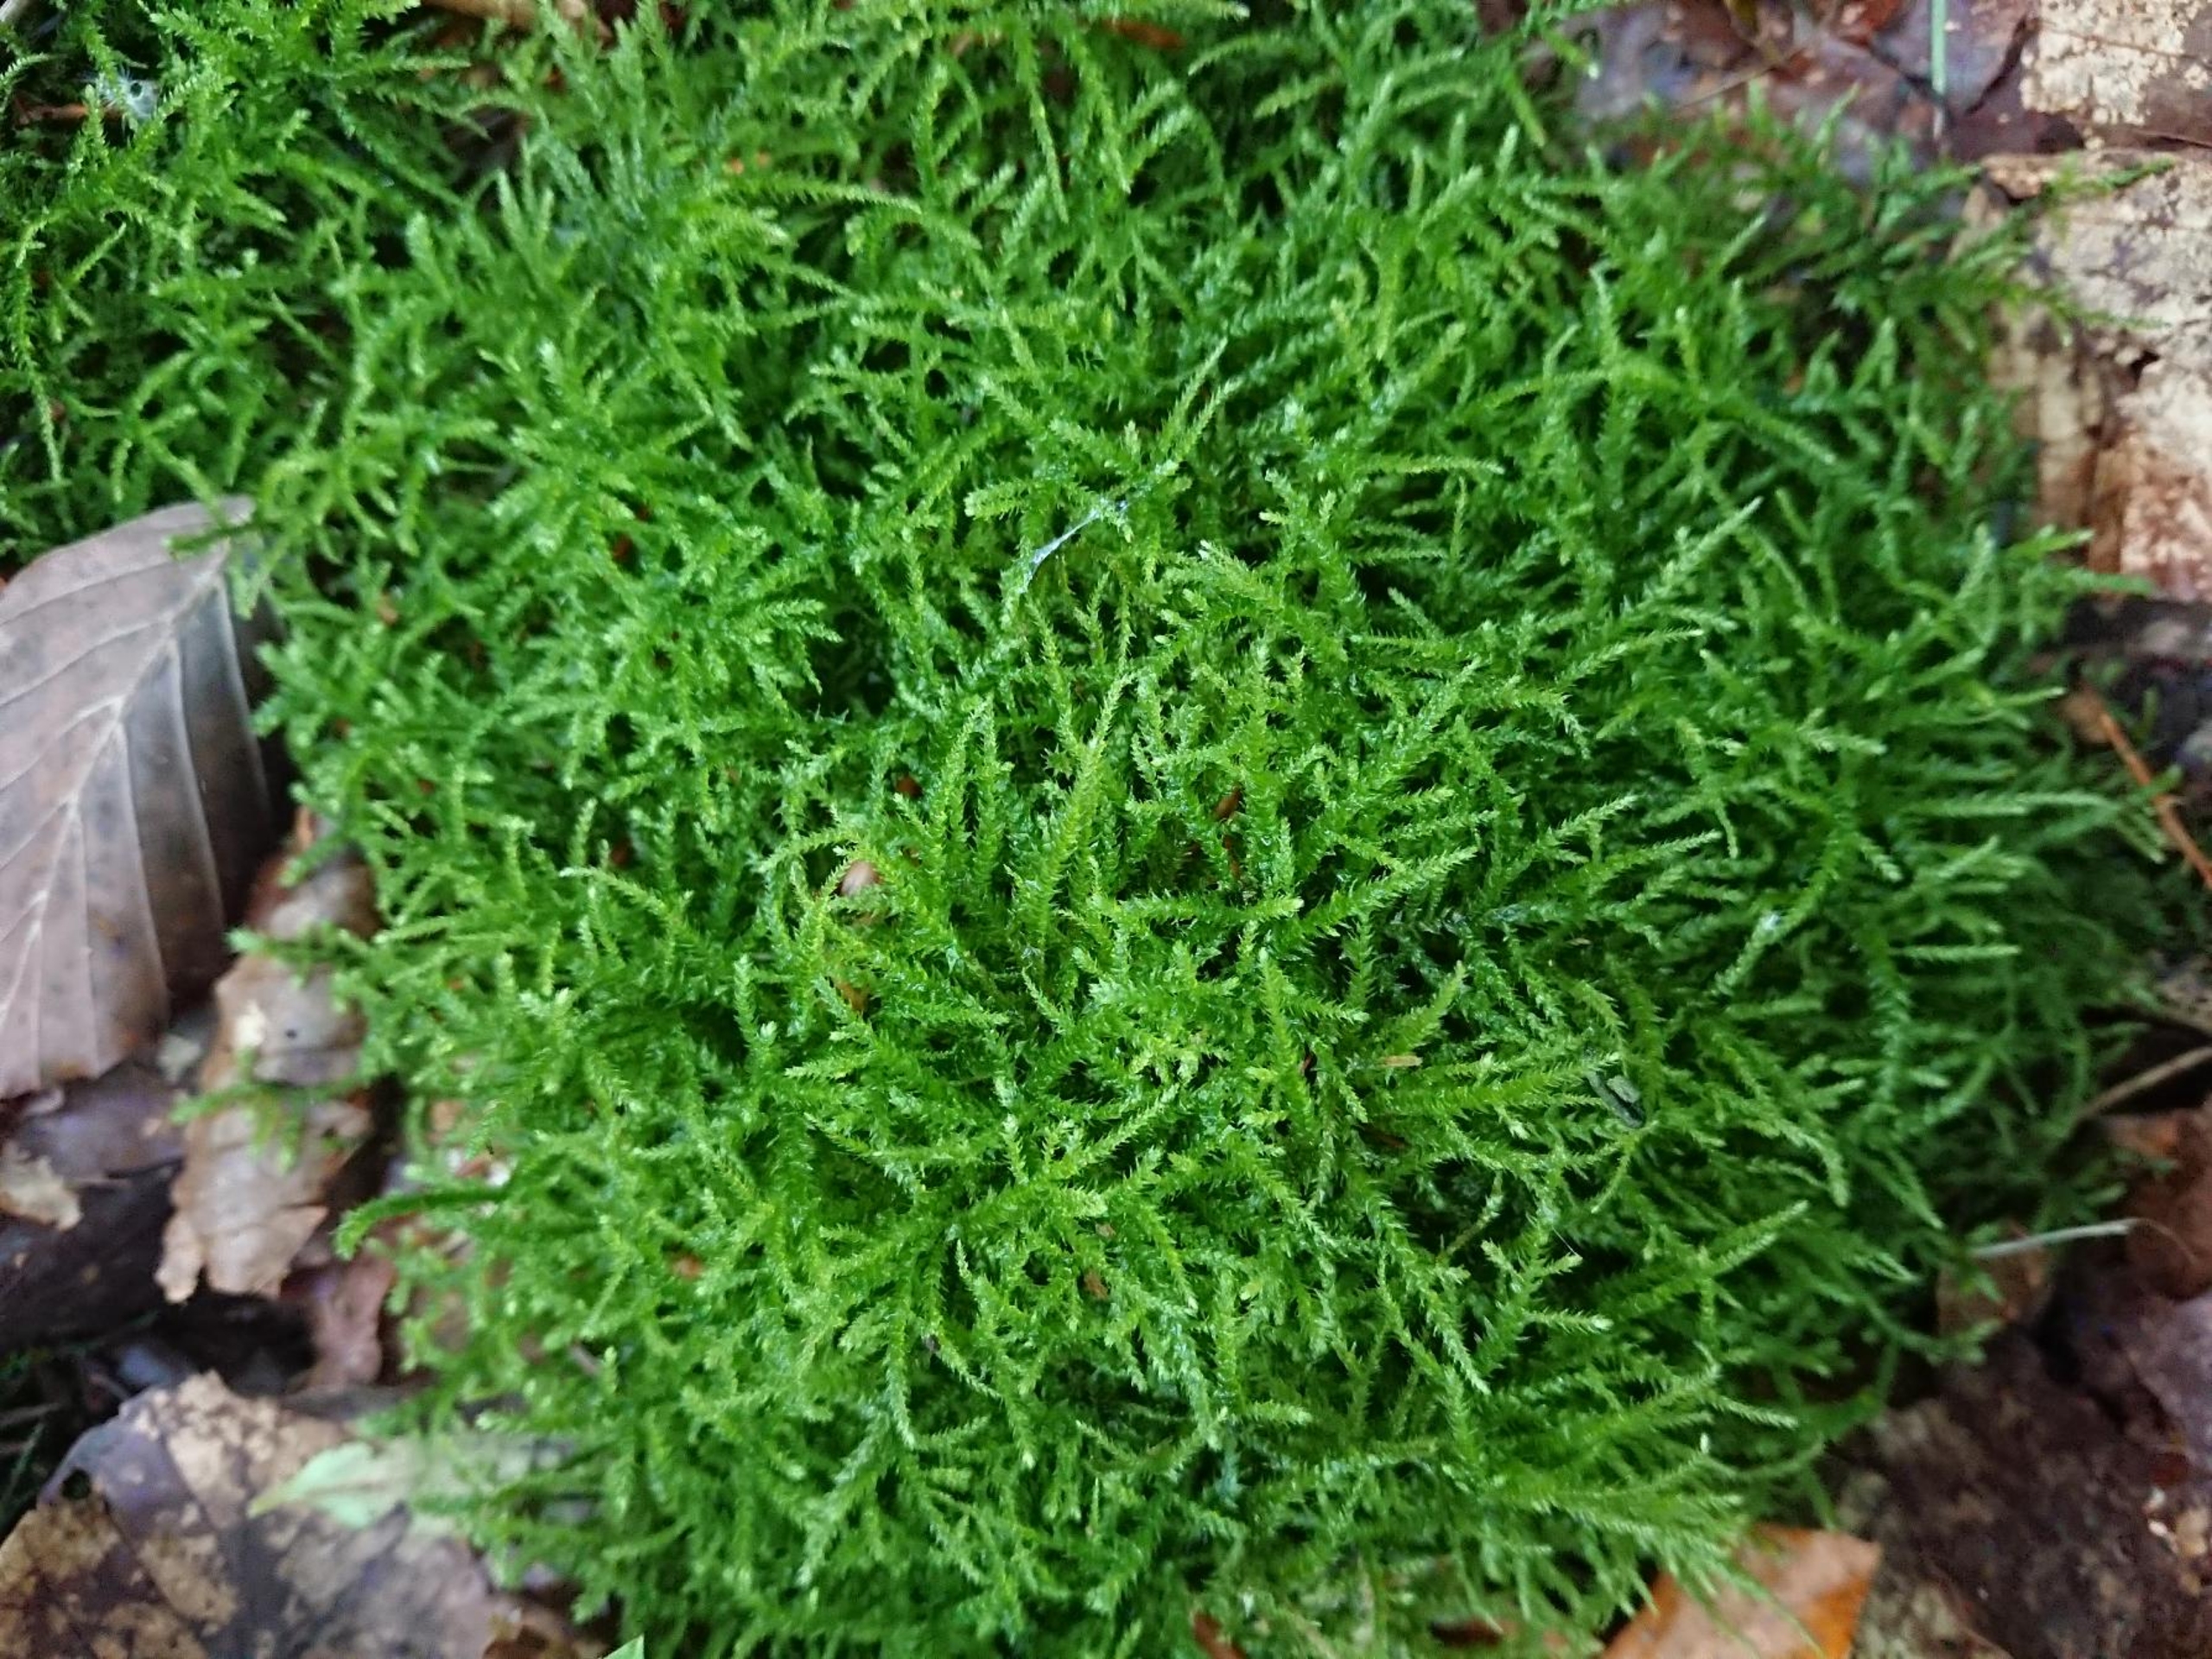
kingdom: Plantae
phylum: Bryophyta
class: Bryopsida
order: Hypnales
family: Brachytheciaceae
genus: Eurhynchium
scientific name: Eurhynchium striatum
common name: Stribet næbmos
